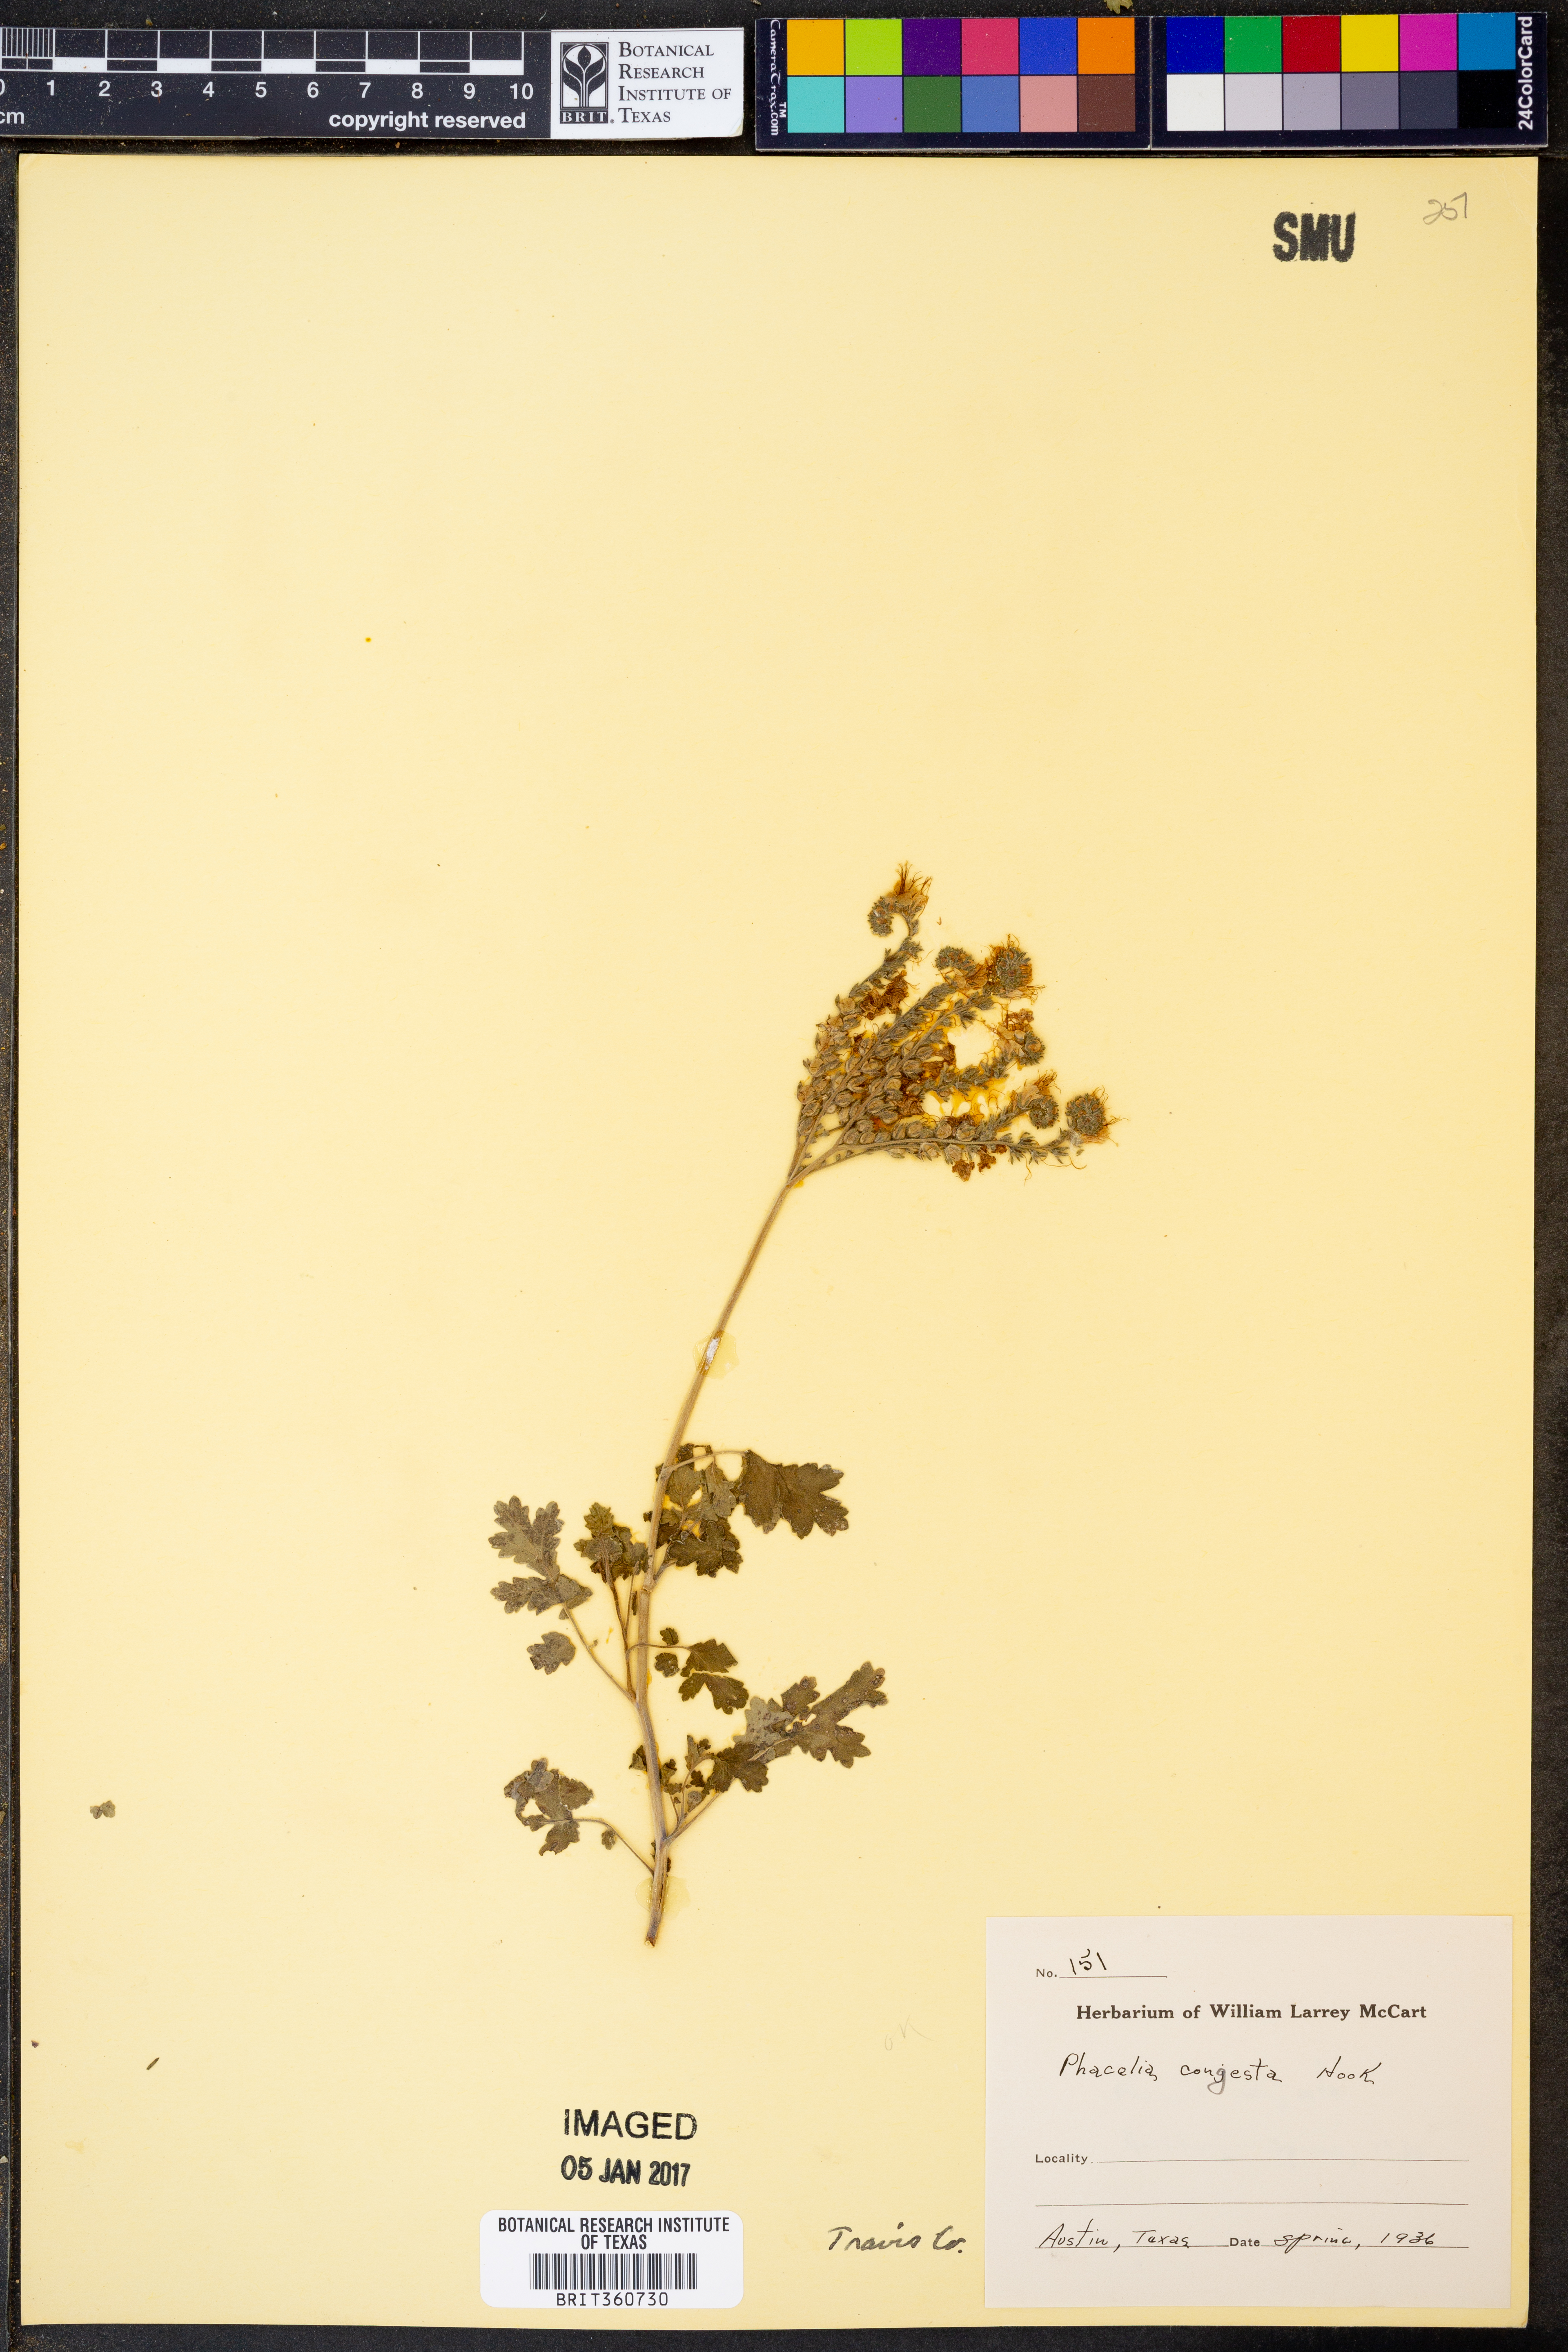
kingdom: Plantae
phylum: Tracheophyta
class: Magnoliopsida
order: Boraginales
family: Hydrophyllaceae
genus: Phacelia
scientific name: Phacelia congesta
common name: Blue curls
